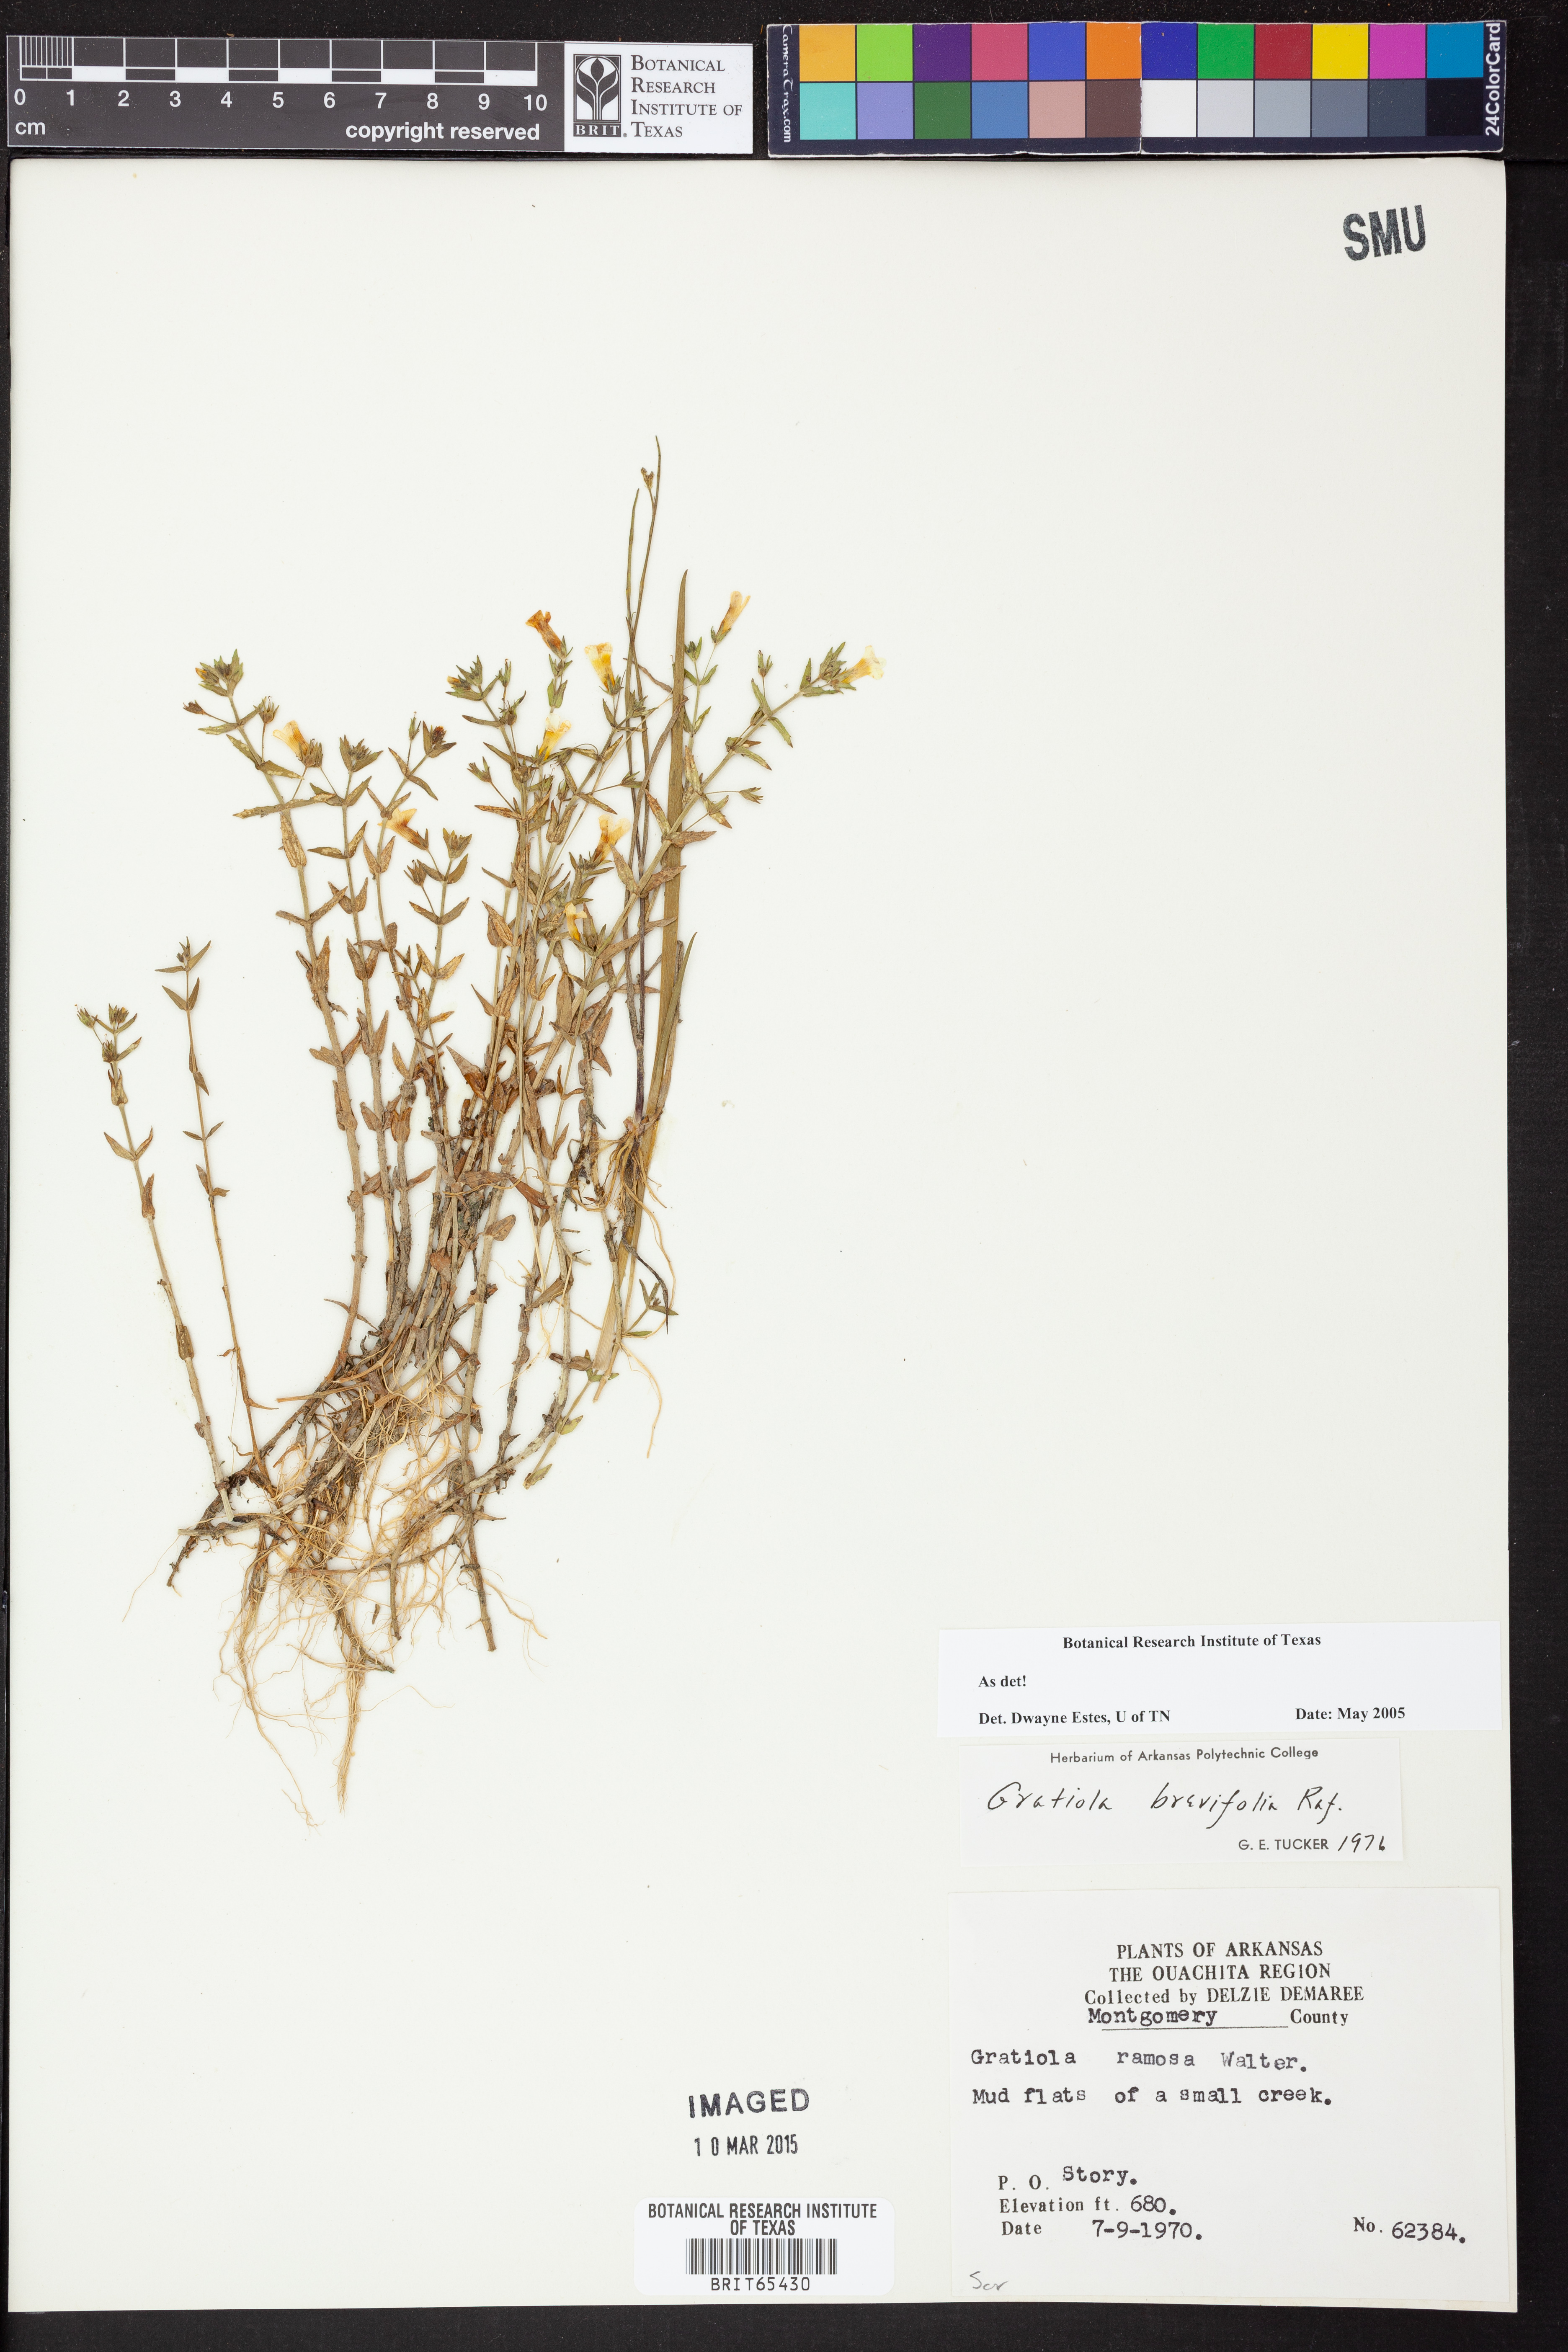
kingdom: Plantae
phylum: Tracheophyta
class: Magnoliopsida
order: Lamiales
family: Plantaginaceae
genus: Gratiola
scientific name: Gratiola brevifolia
